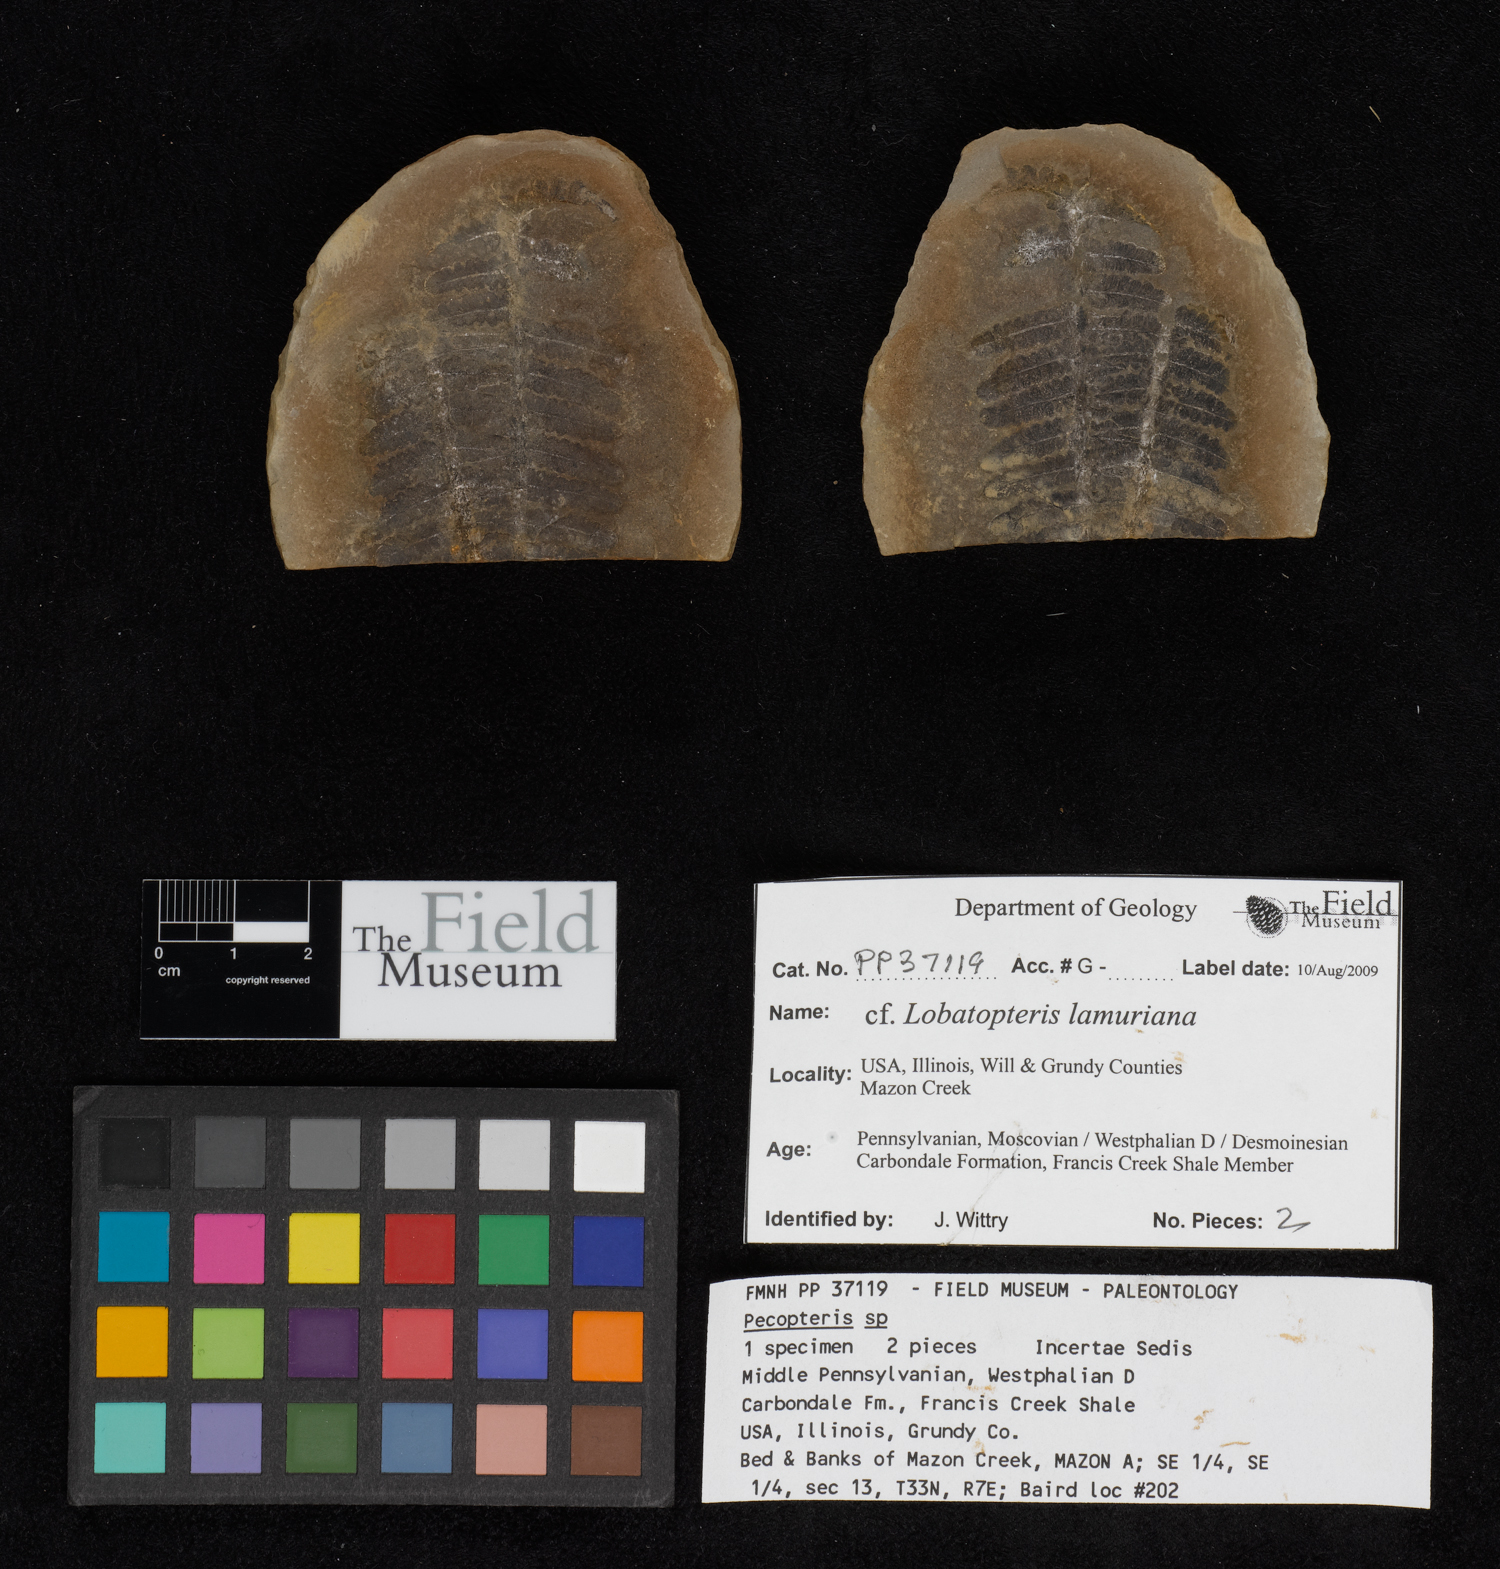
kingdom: Plantae
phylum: Tracheophyta
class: Polypodiopsida
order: Marattiales
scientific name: Marattiales
